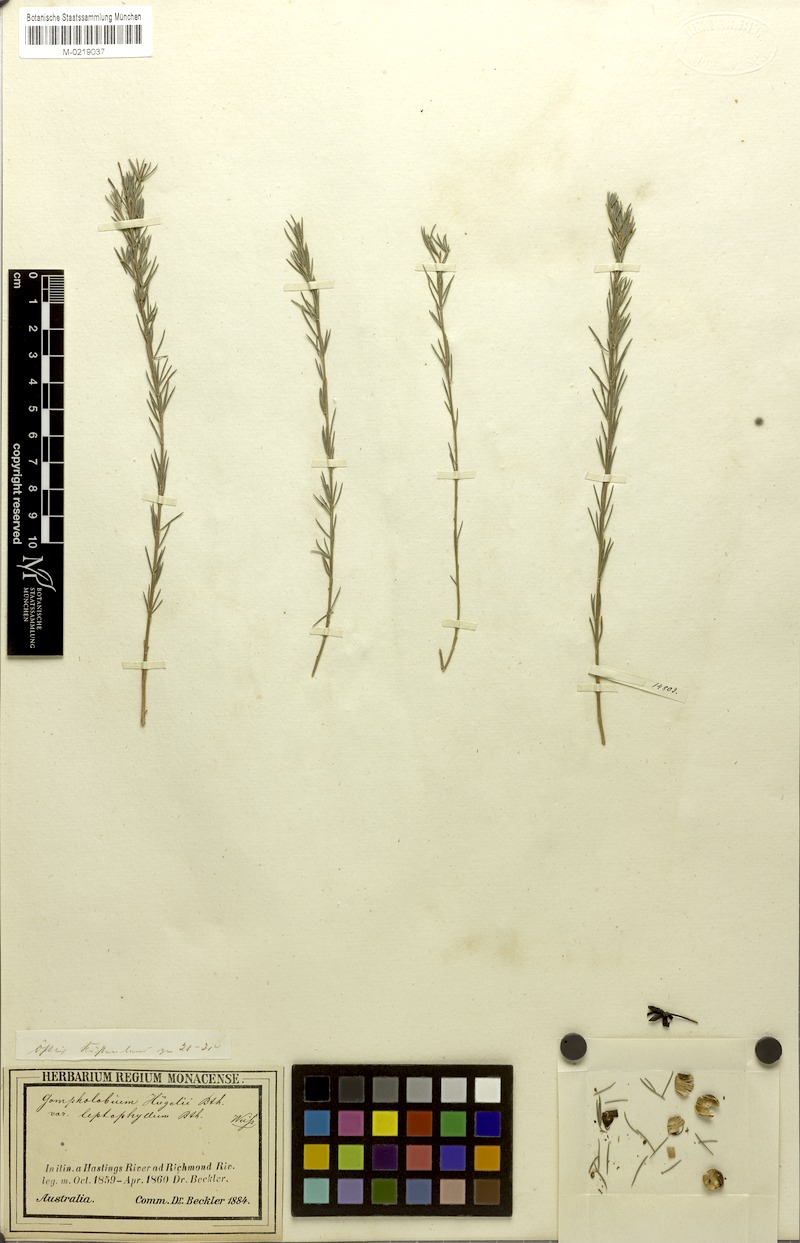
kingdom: Plantae
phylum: Tracheophyta
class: Magnoliopsida
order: Fabales
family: Fabaceae
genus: Gompholobium
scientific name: Gompholobium huegelii
